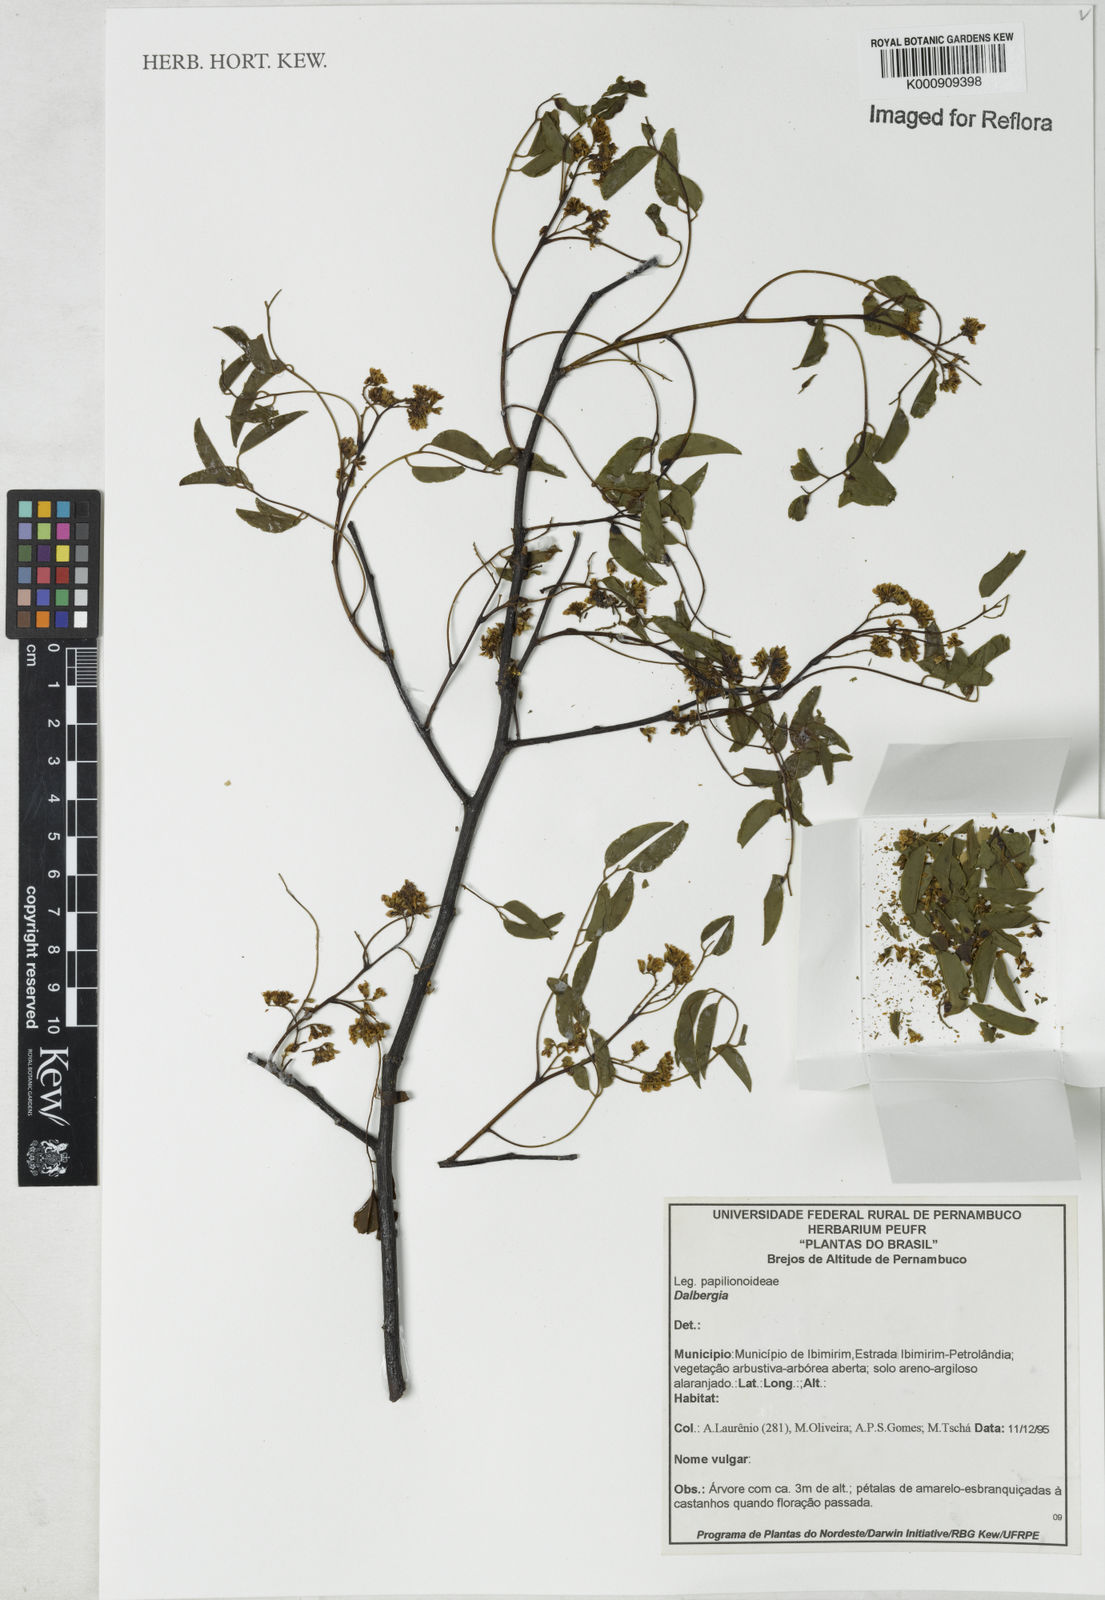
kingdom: Plantae
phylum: Tracheophyta
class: Magnoliopsida
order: Fabales
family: Fabaceae
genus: Dalbergia
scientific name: Dalbergia
